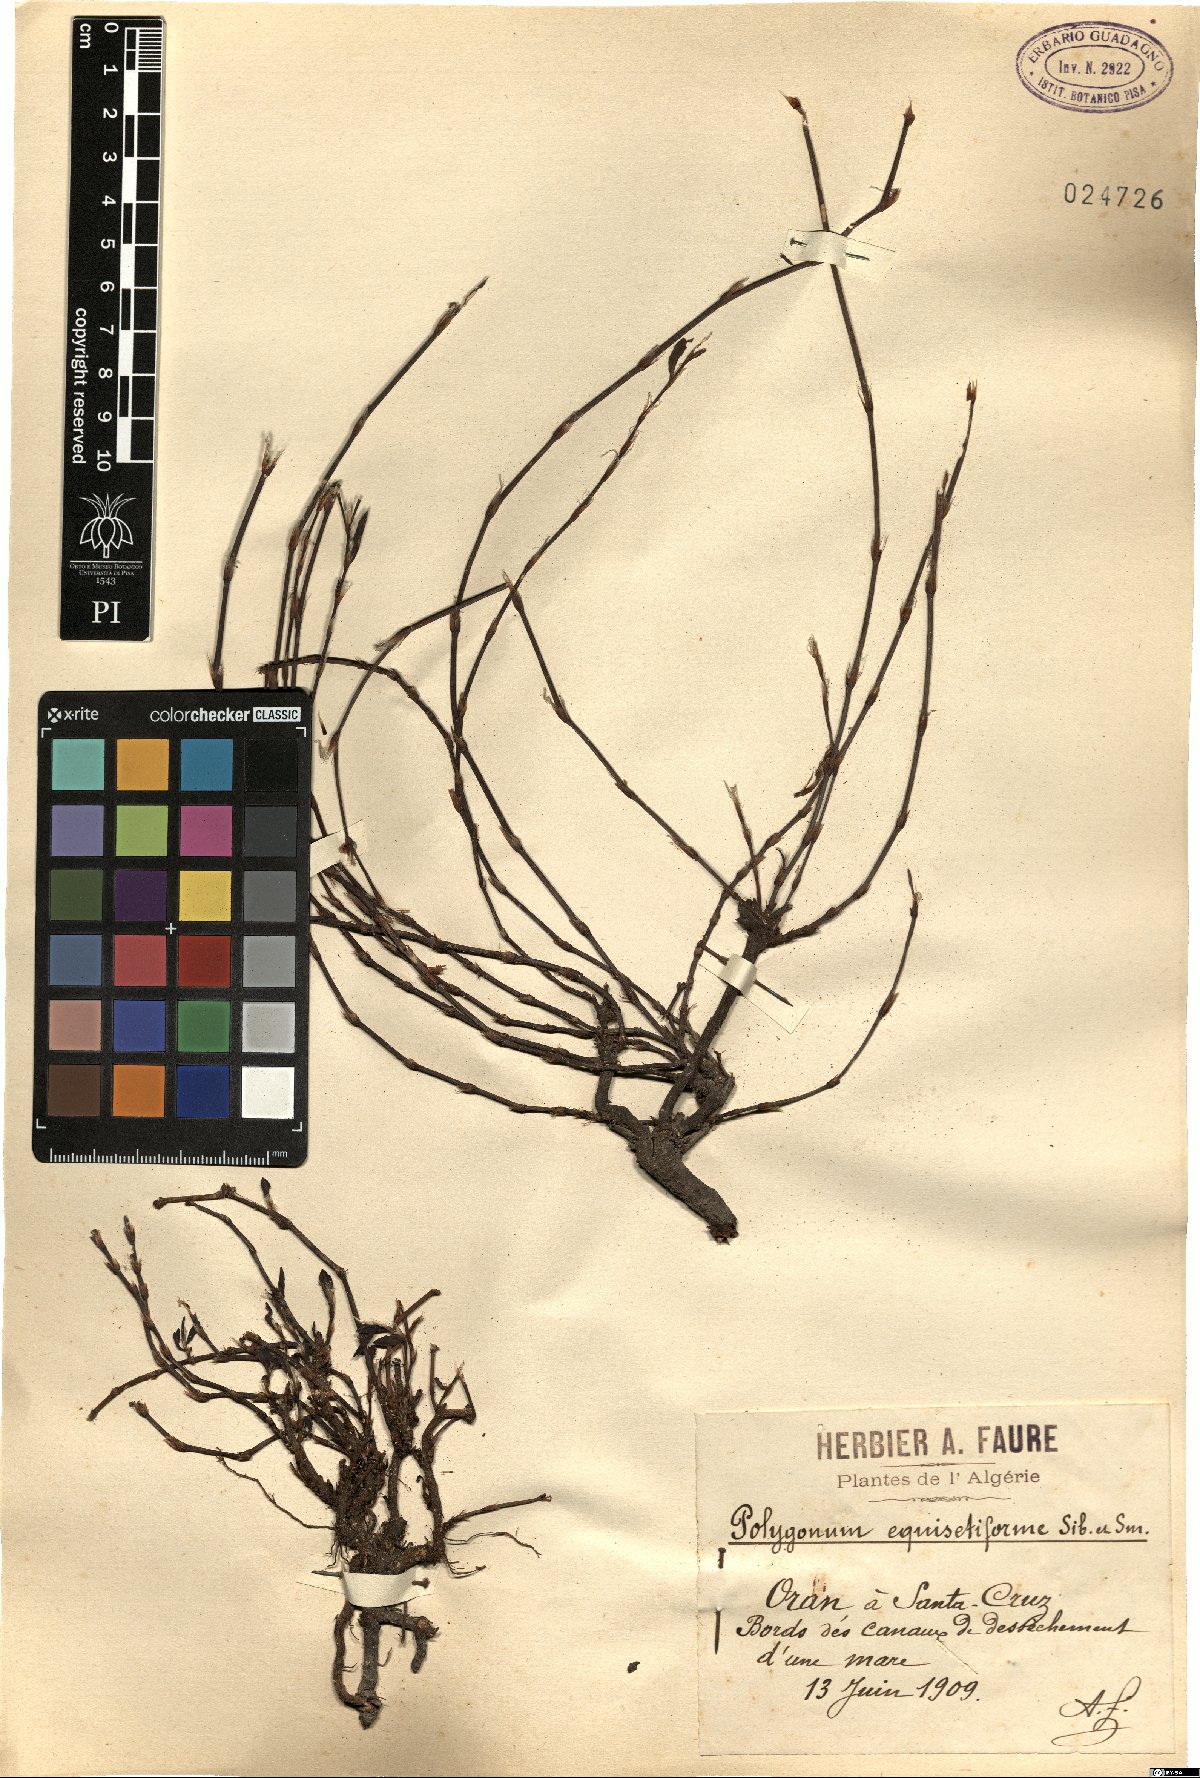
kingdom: Plantae
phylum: Tracheophyta
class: Magnoliopsida
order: Caryophyllales
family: Polygonaceae
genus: Polygonum
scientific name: Polygonum equisetiforme
